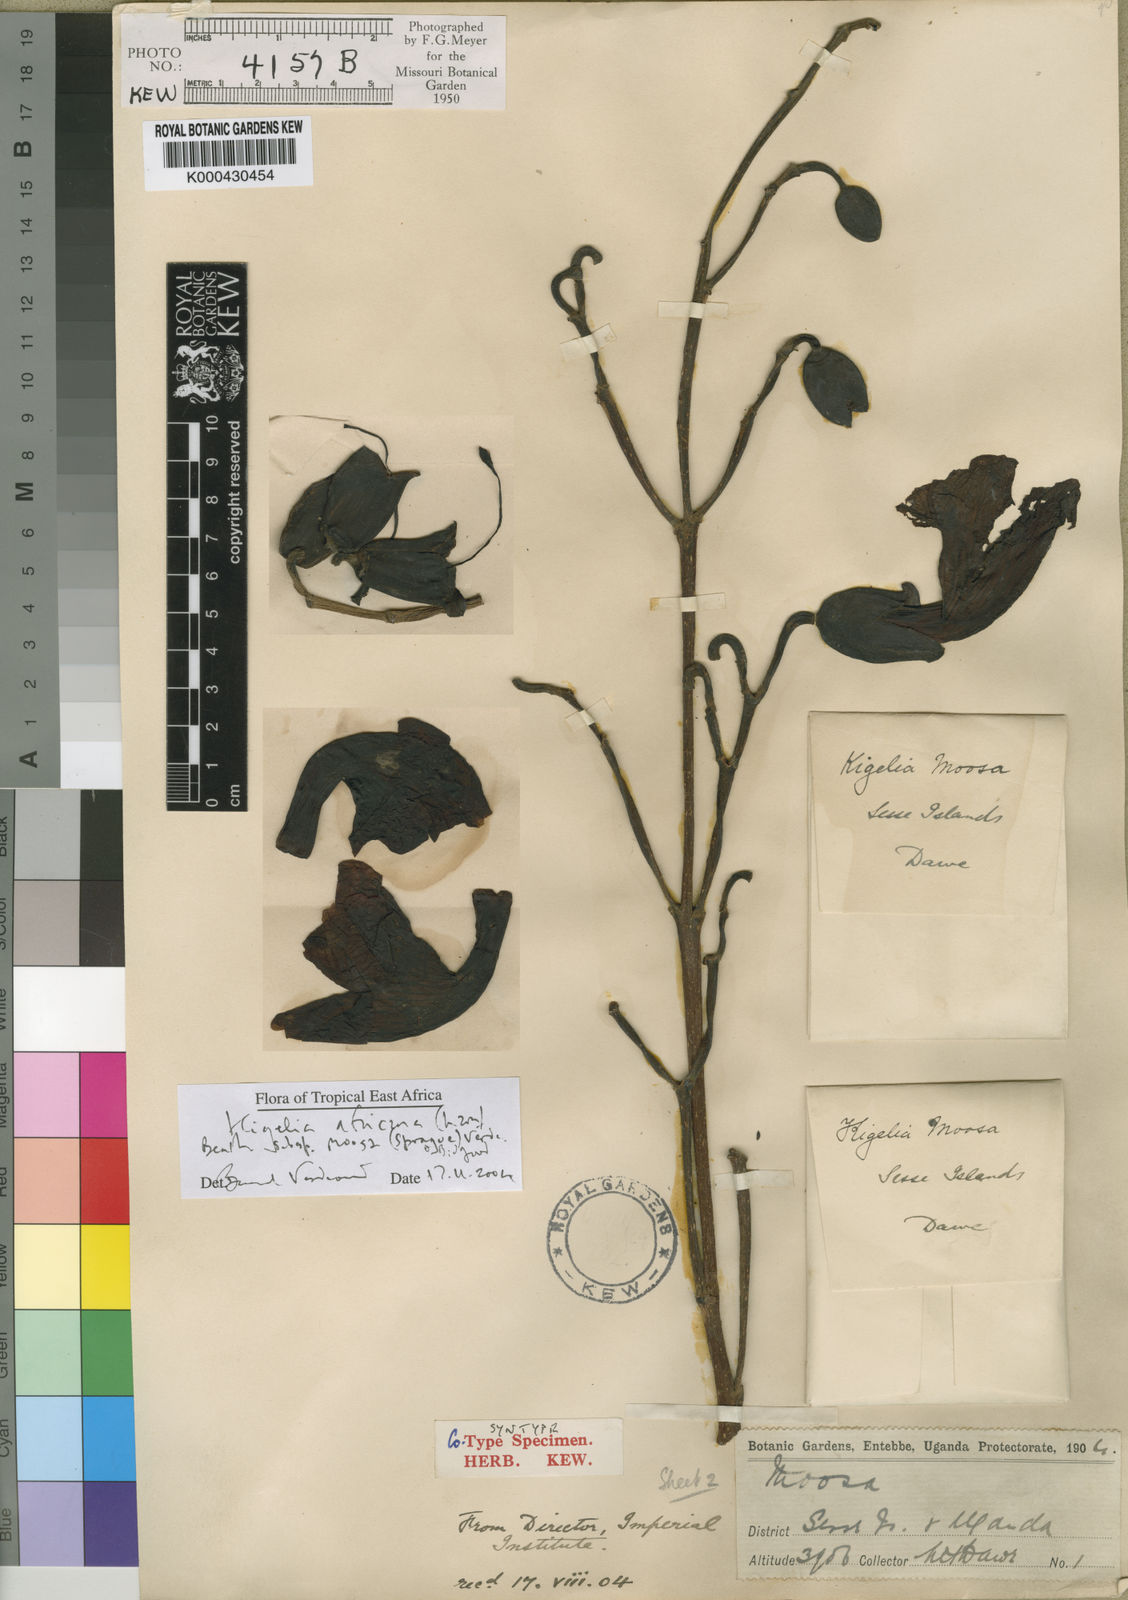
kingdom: Plantae
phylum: Tracheophyta
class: Magnoliopsida
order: Lamiales
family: Bignoniaceae
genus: Kigelia
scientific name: Kigelia africana
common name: Sausage tree
